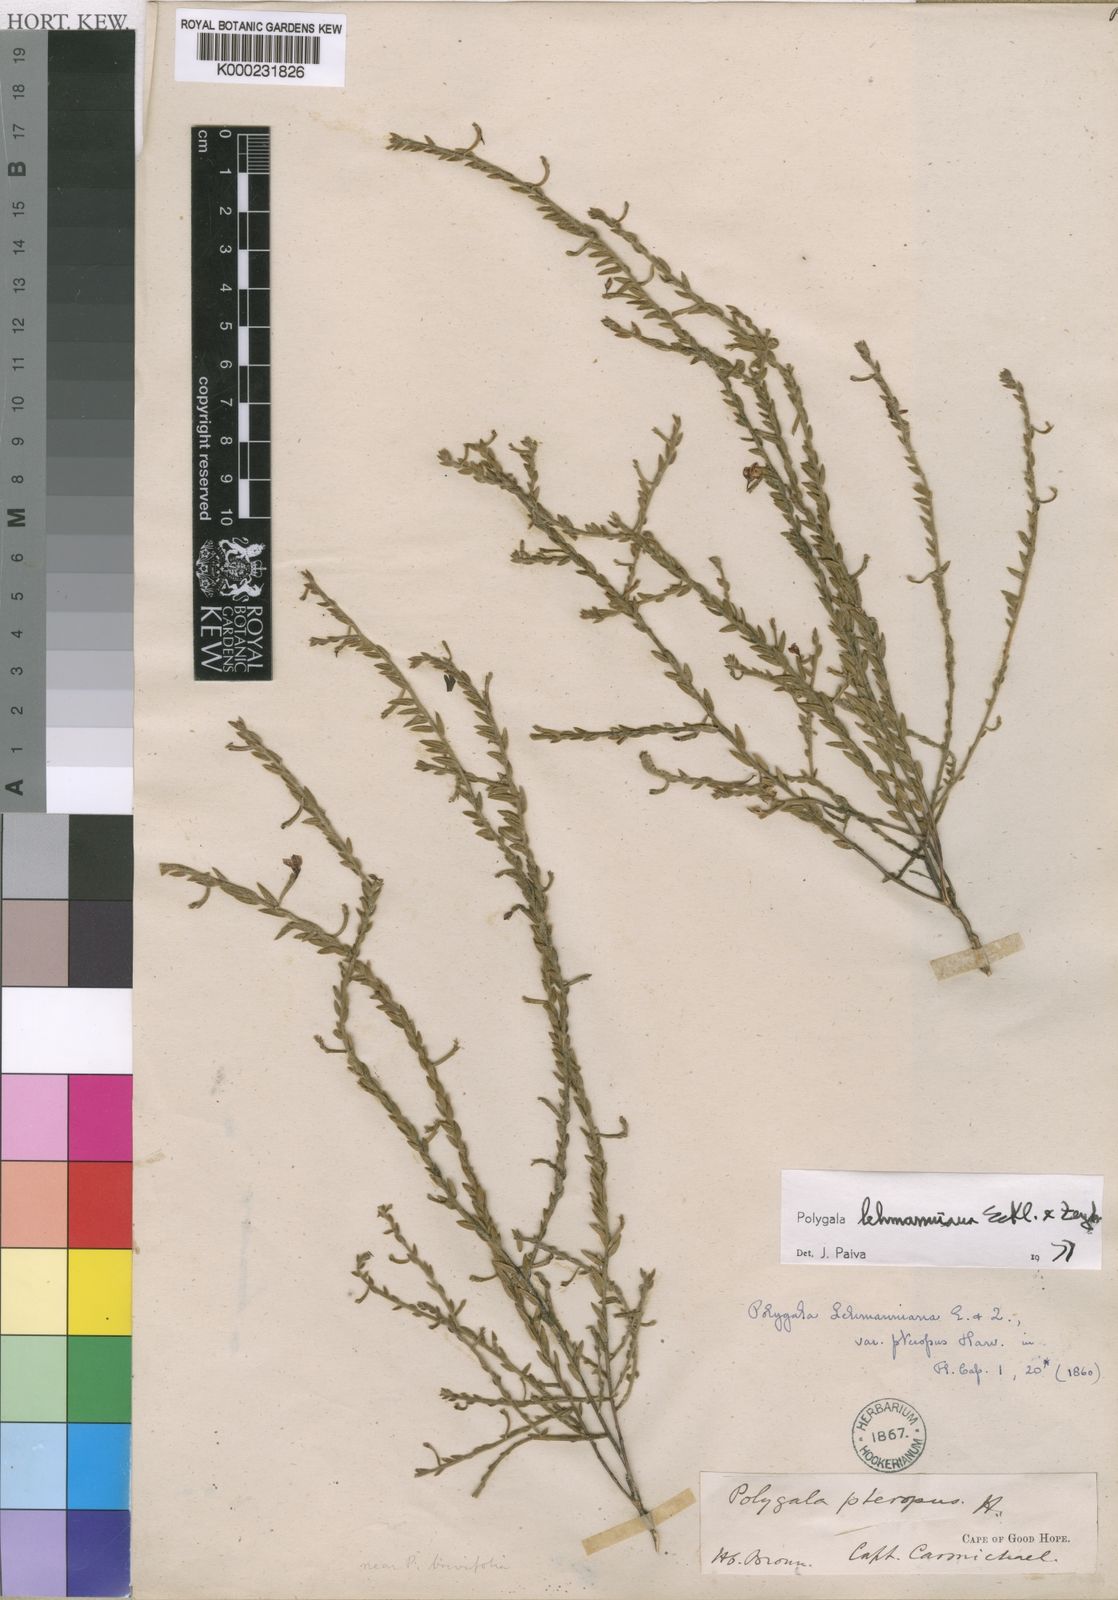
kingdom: Plantae
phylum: Tracheophyta
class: Magnoliopsida
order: Fabales
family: Polygalaceae
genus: Polygala
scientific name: Polygala lehmanniana
